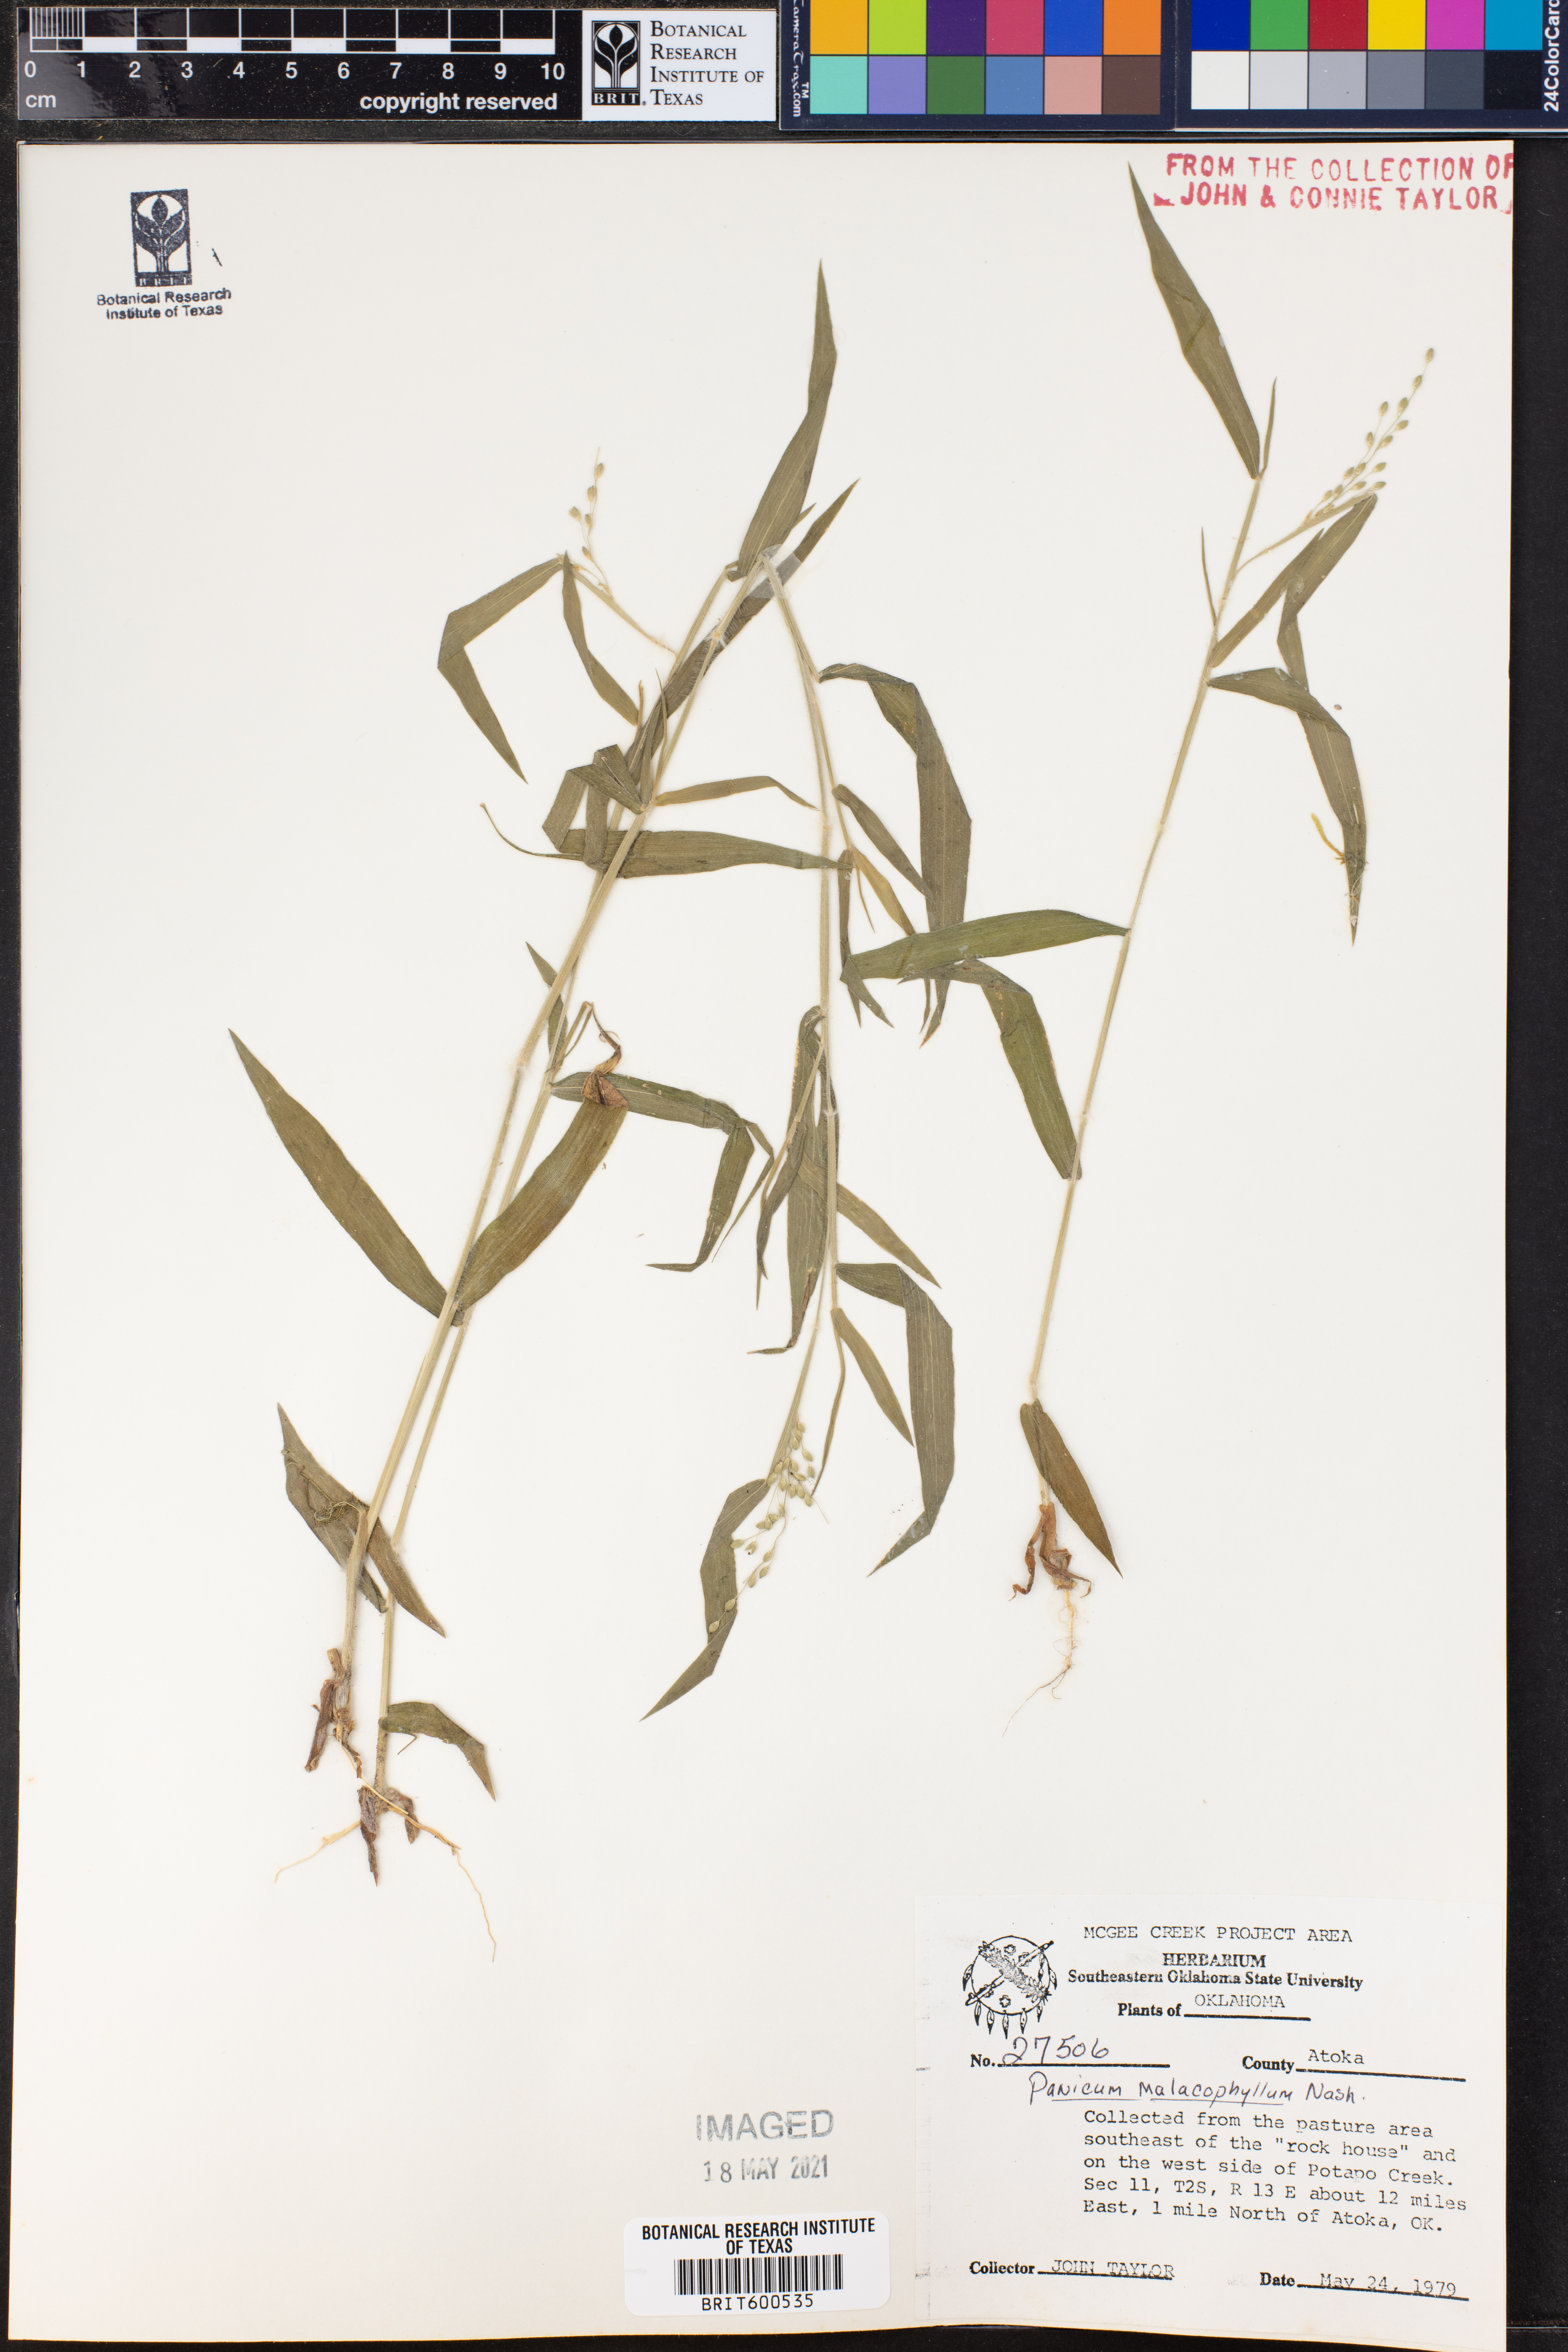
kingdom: Plantae
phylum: Tracheophyta
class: Liliopsida
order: Poales
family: Poaceae
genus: Dichanthelium
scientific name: Dichanthelium malacophyllum
